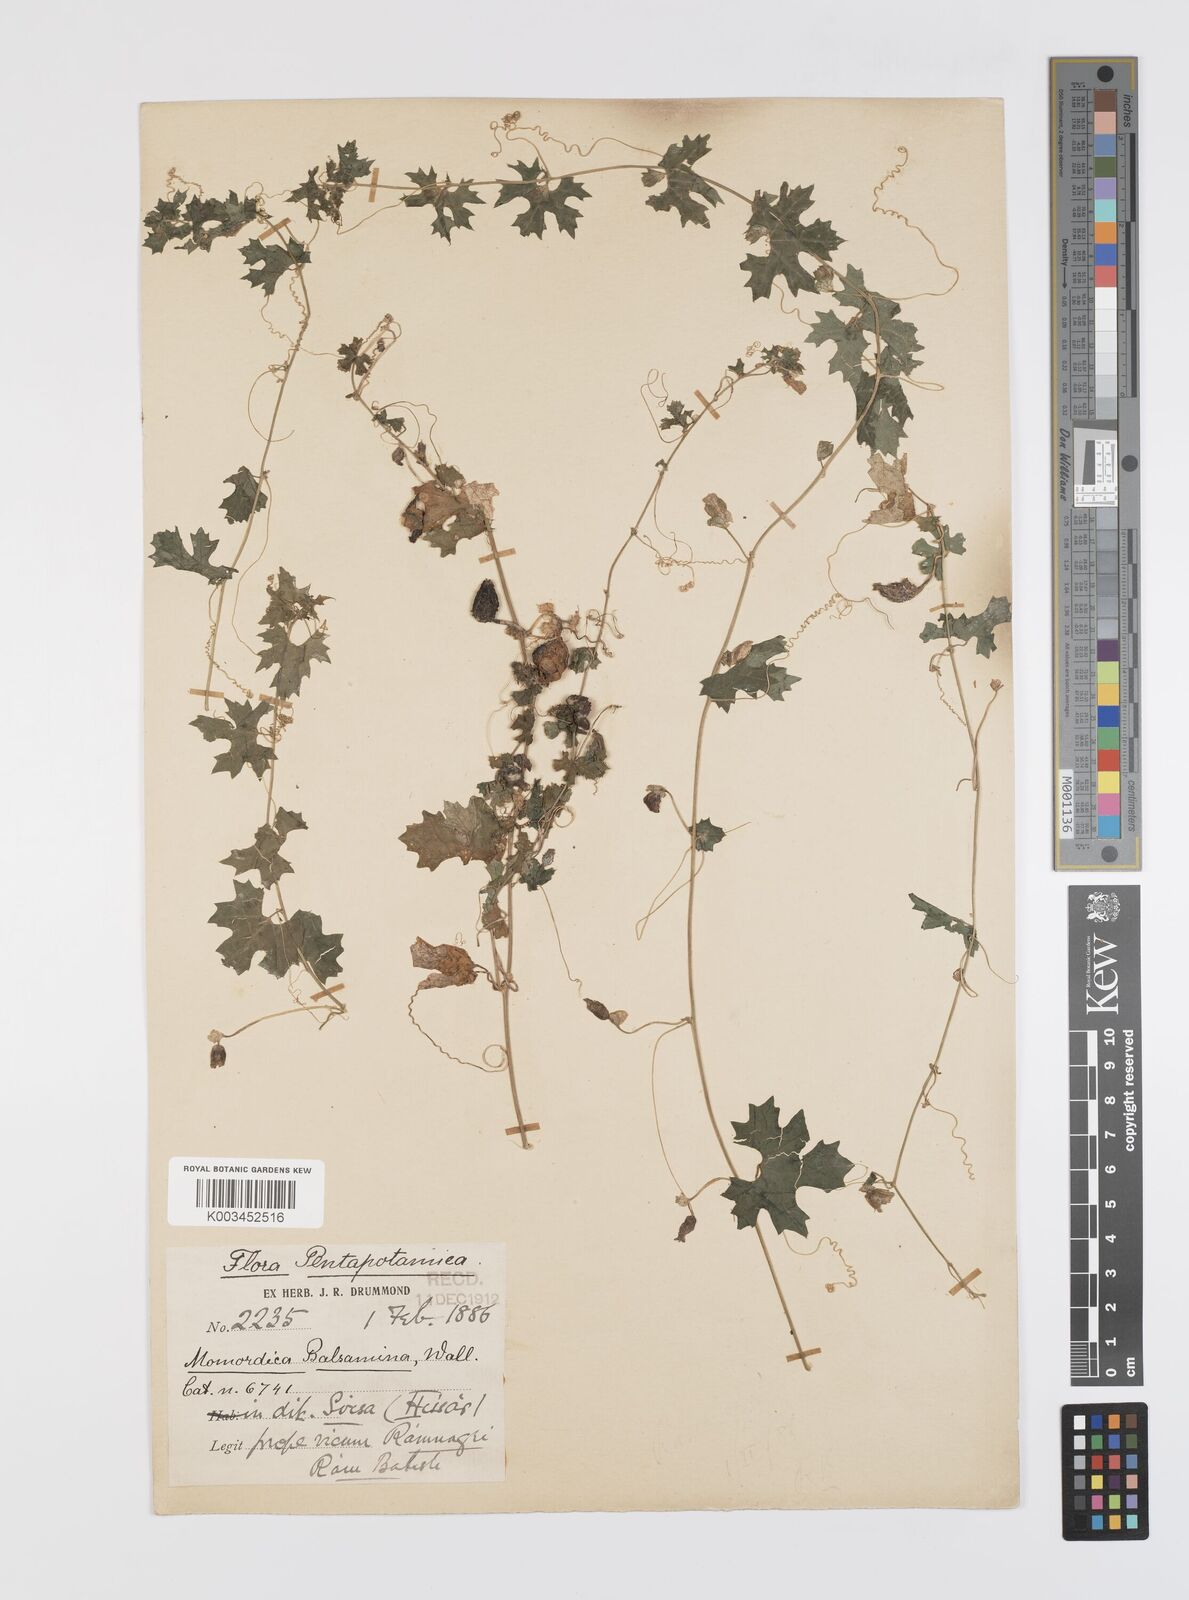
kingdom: Plantae
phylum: Tracheophyta
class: Magnoliopsida
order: Cucurbitales
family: Cucurbitaceae
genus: Momordica
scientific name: Momordica balsamina
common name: Southern balsampear
